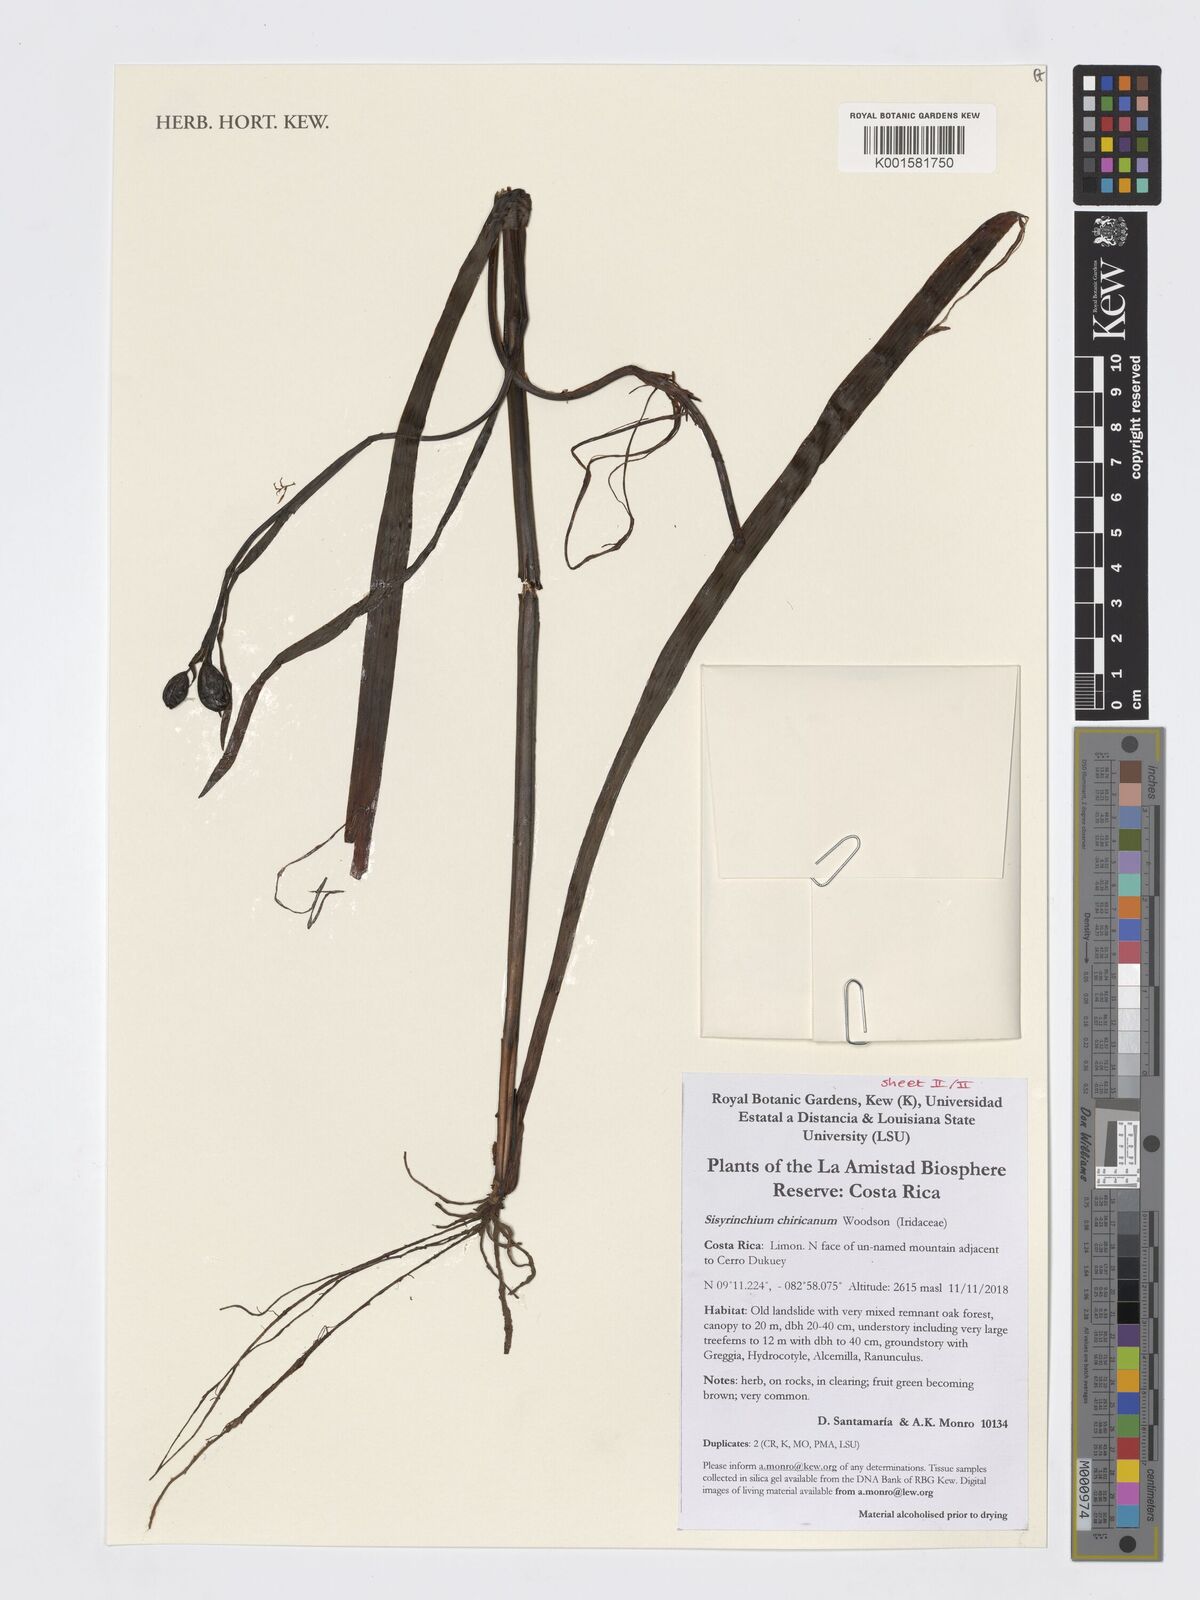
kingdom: Plantae
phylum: Tracheophyta
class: Liliopsida
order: Asparagales
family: Iridaceae
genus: Sisyrinchium
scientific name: Sisyrinchium chiricanum
